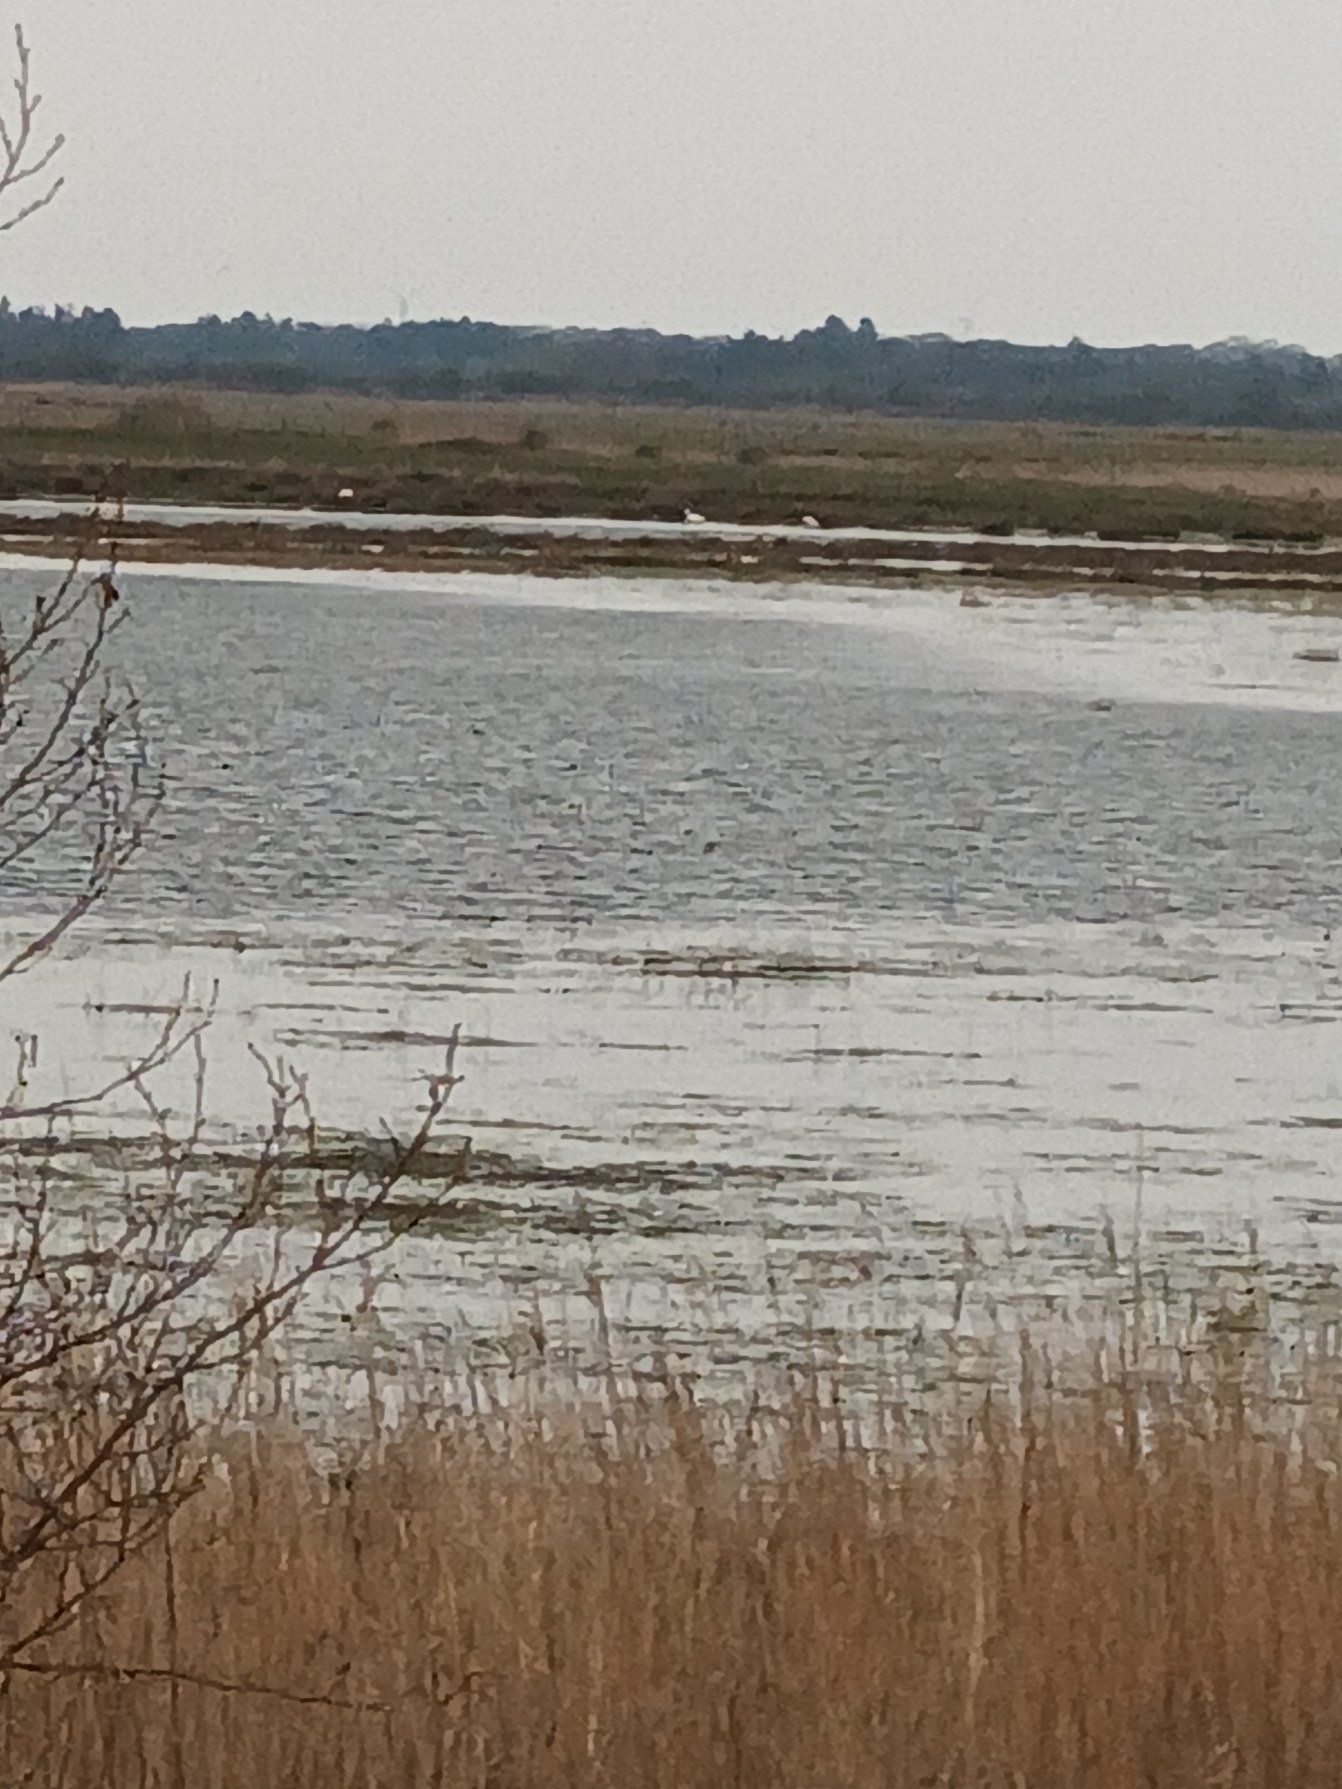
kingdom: Animalia
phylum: Chordata
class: Aves
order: Pelecaniformes
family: Ardeidae
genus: Ardea
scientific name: Ardea alba
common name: Sølvhejre
